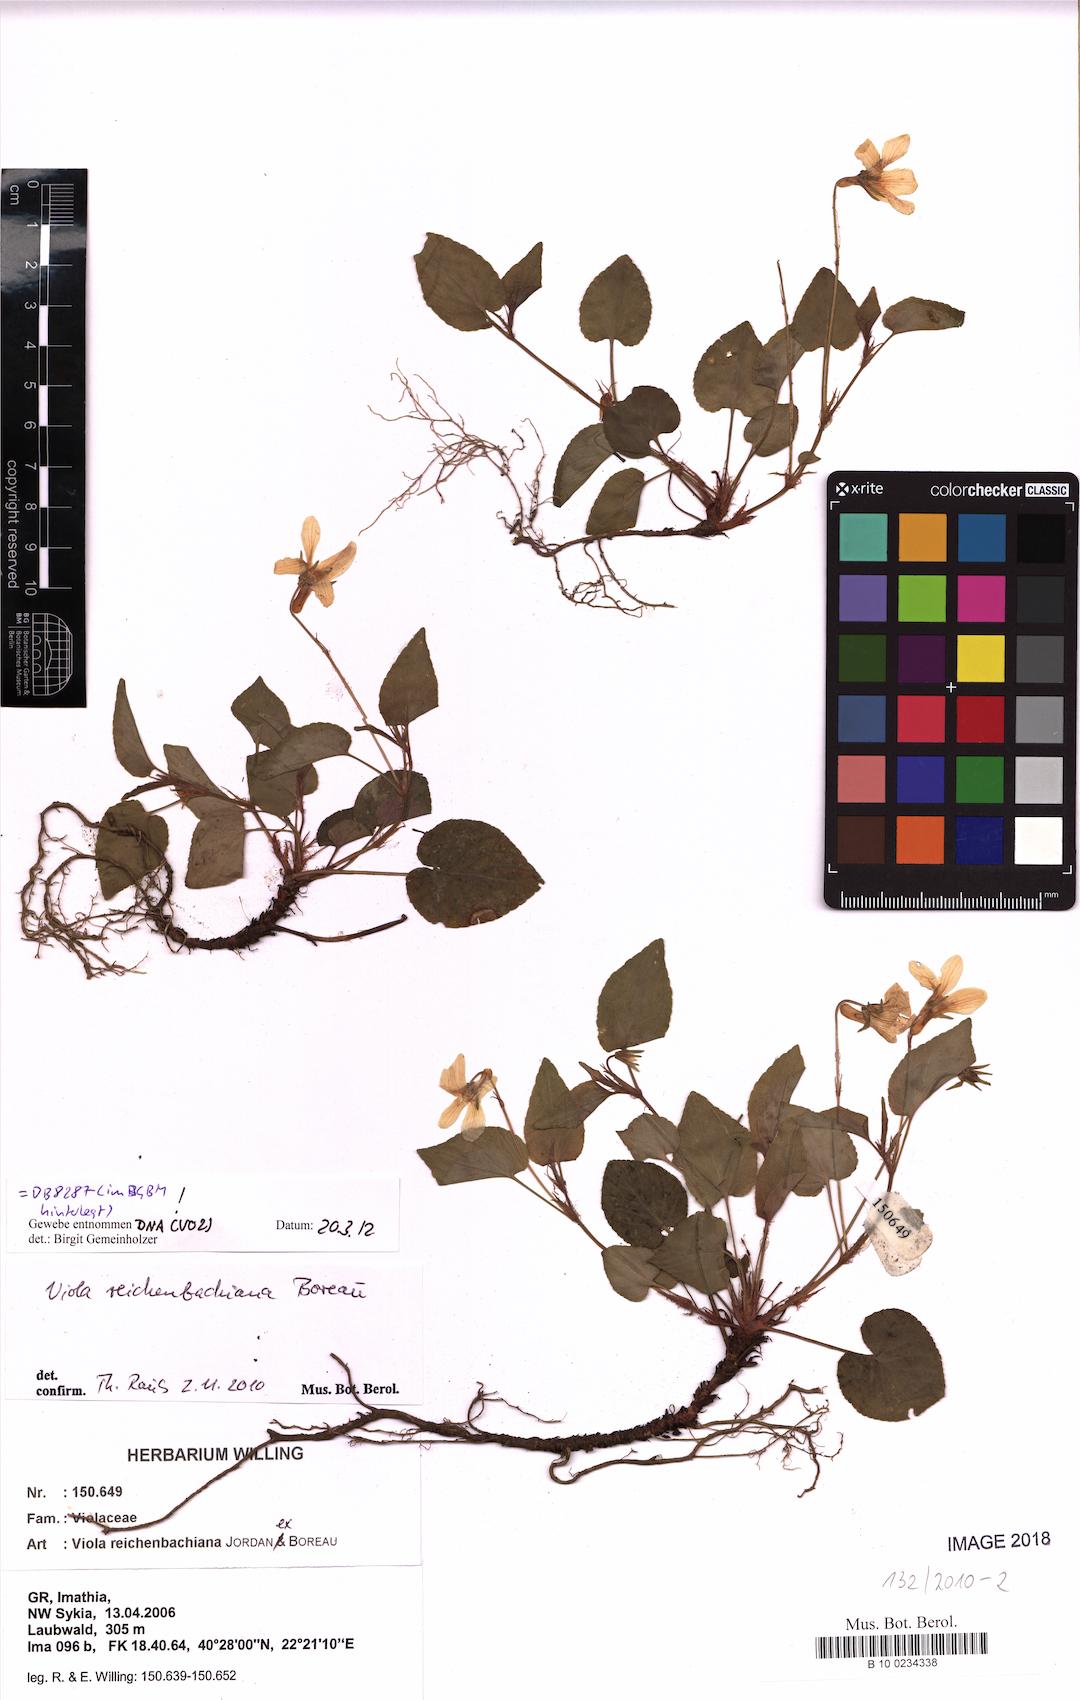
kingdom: Plantae
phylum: Tracheophyta
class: Magnoliopsida
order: Malpighiales
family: Violaceae
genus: Viola
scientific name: Viola reichenbachiana
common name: Early dog-violet
